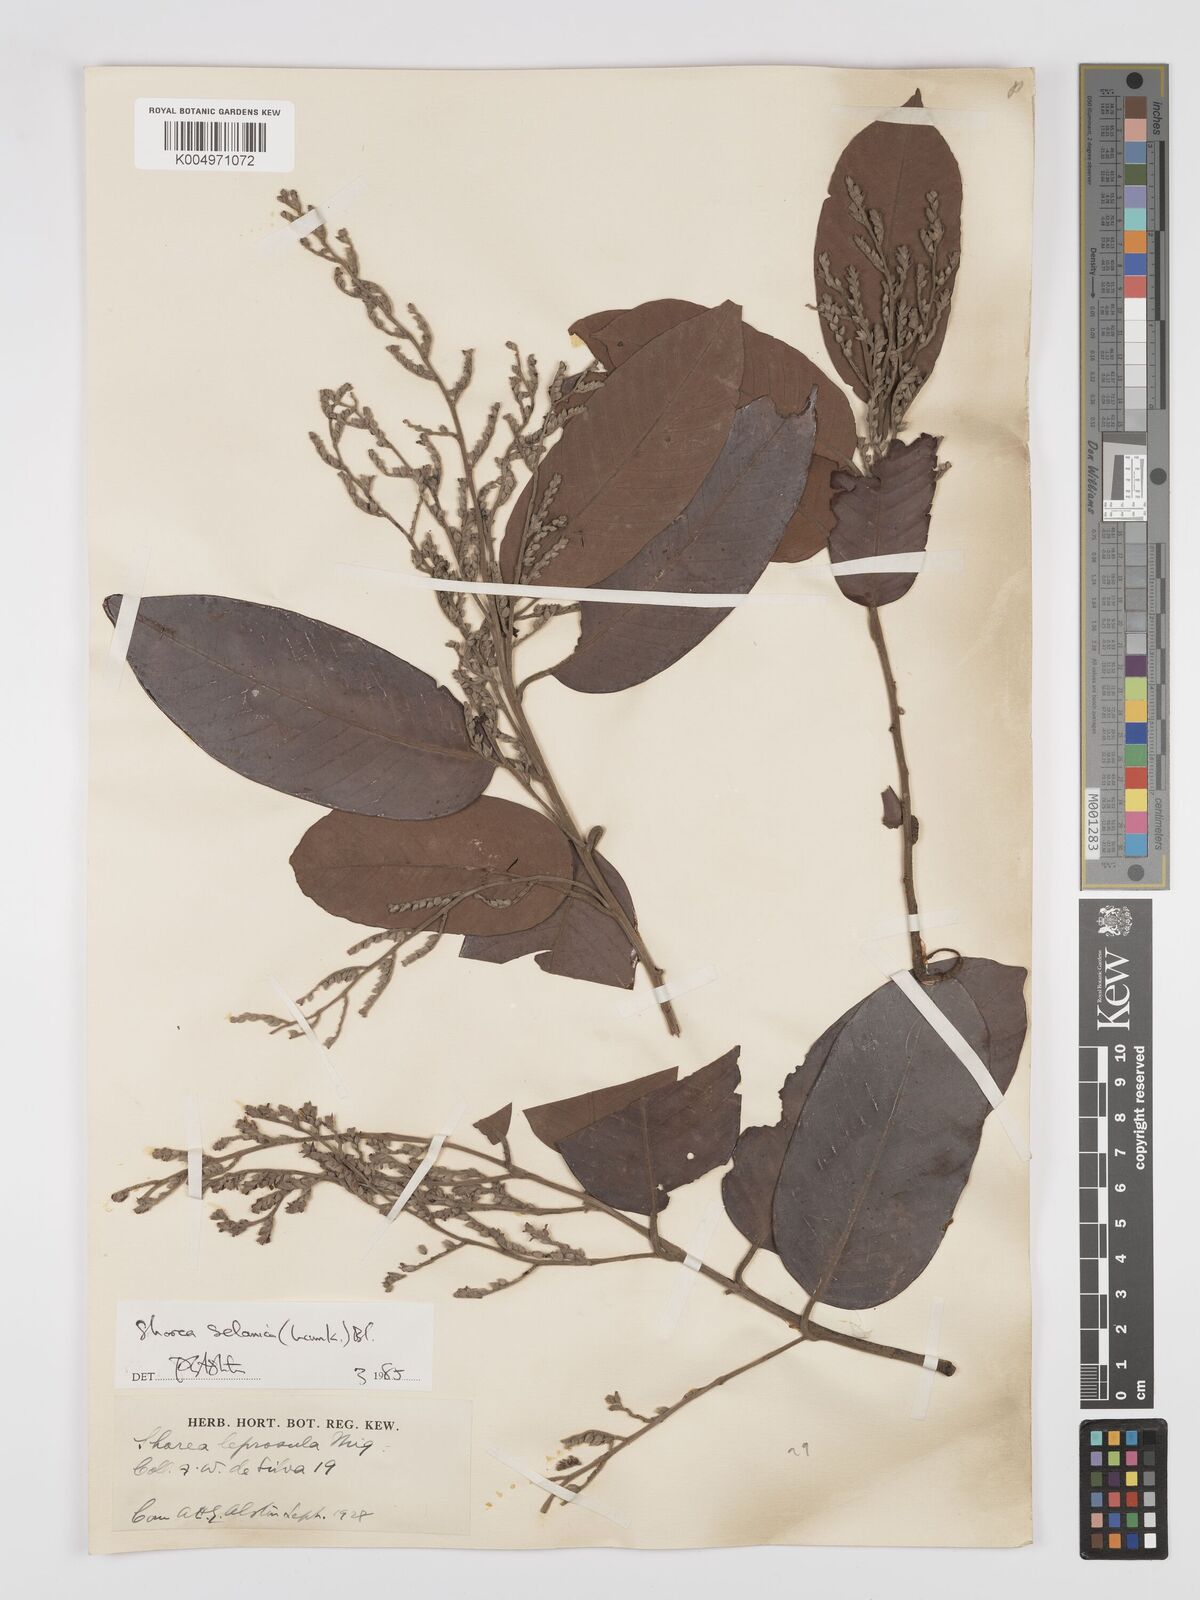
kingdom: Plantae
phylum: Tracheophyta
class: Magnoliopsida
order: Malvales
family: Dipterocarpaceae
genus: Shorea
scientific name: Shorea selanica
